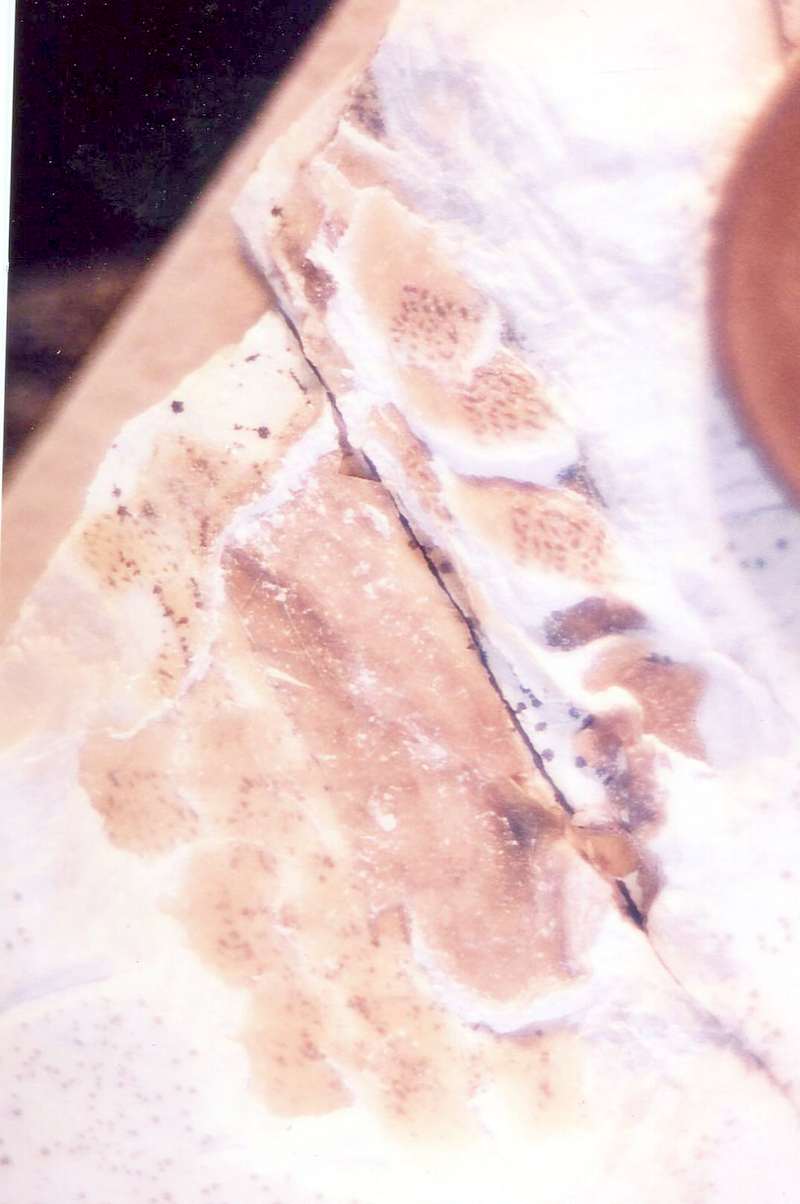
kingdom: Animalia
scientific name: Animalia
